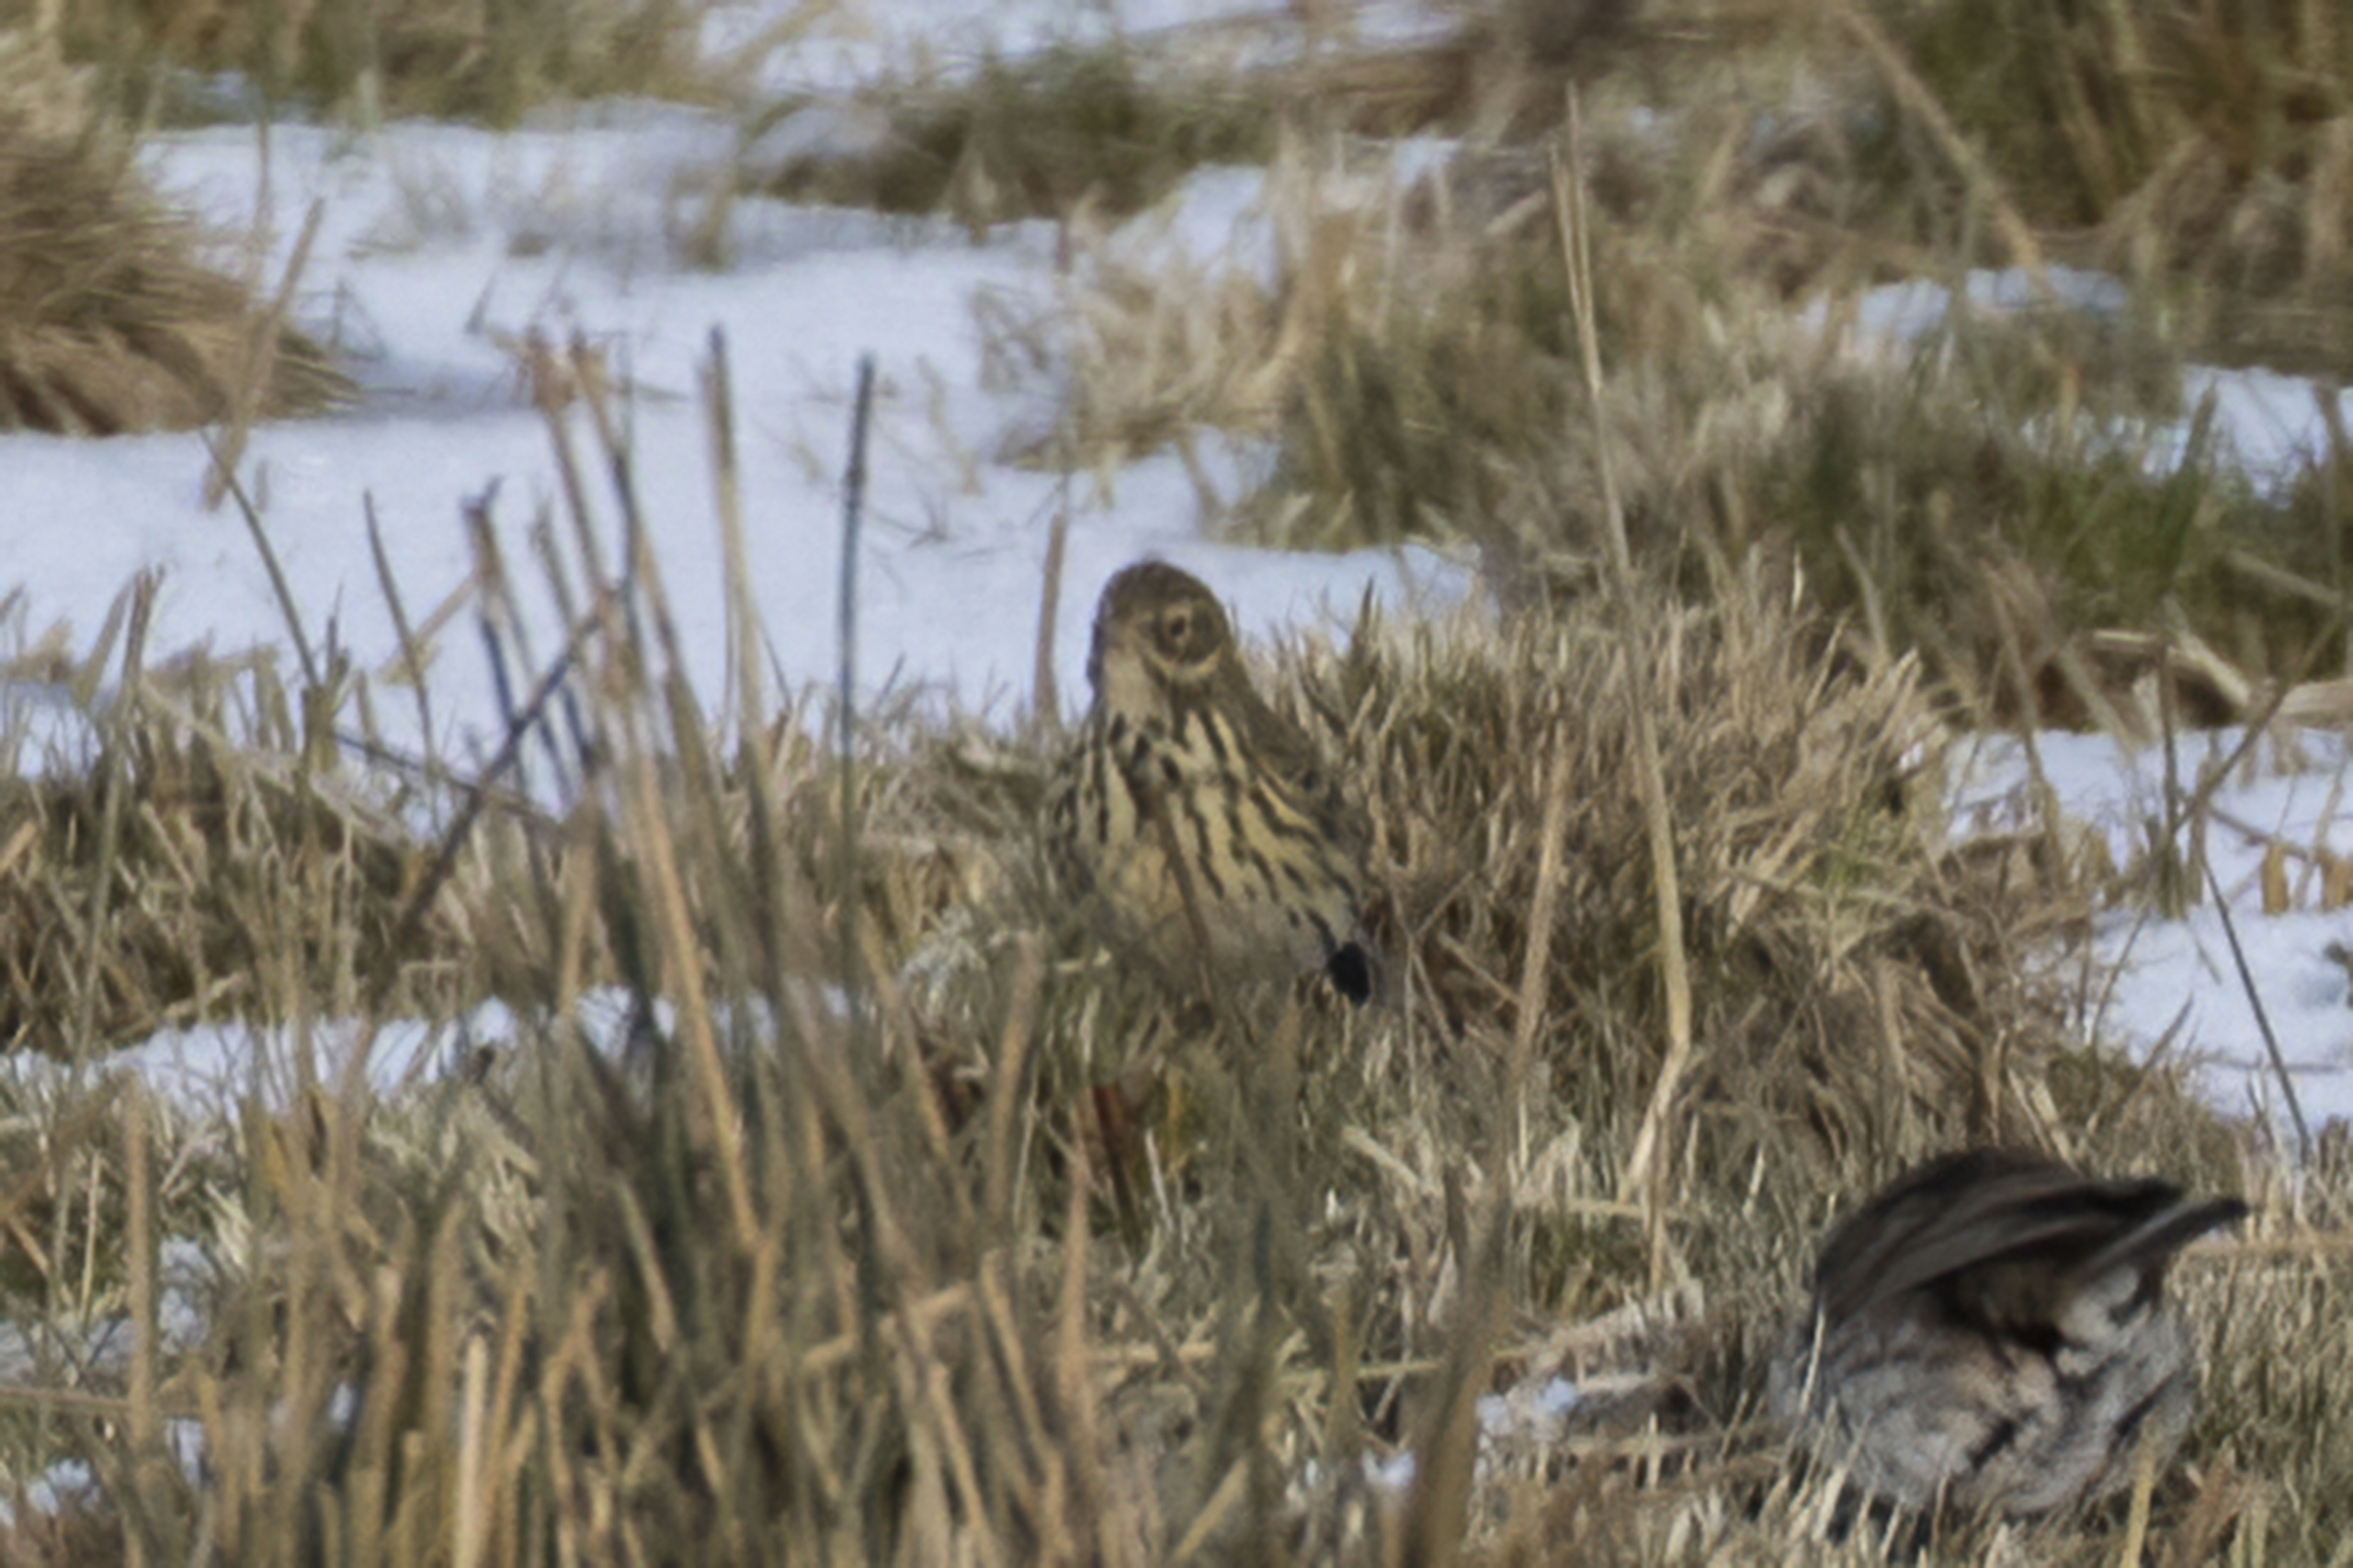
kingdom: Animalia
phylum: Chordata
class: Aves
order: Passeriformes
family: Motacillidae
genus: Anthus
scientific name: Anthus pratensis
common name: Engpiber
